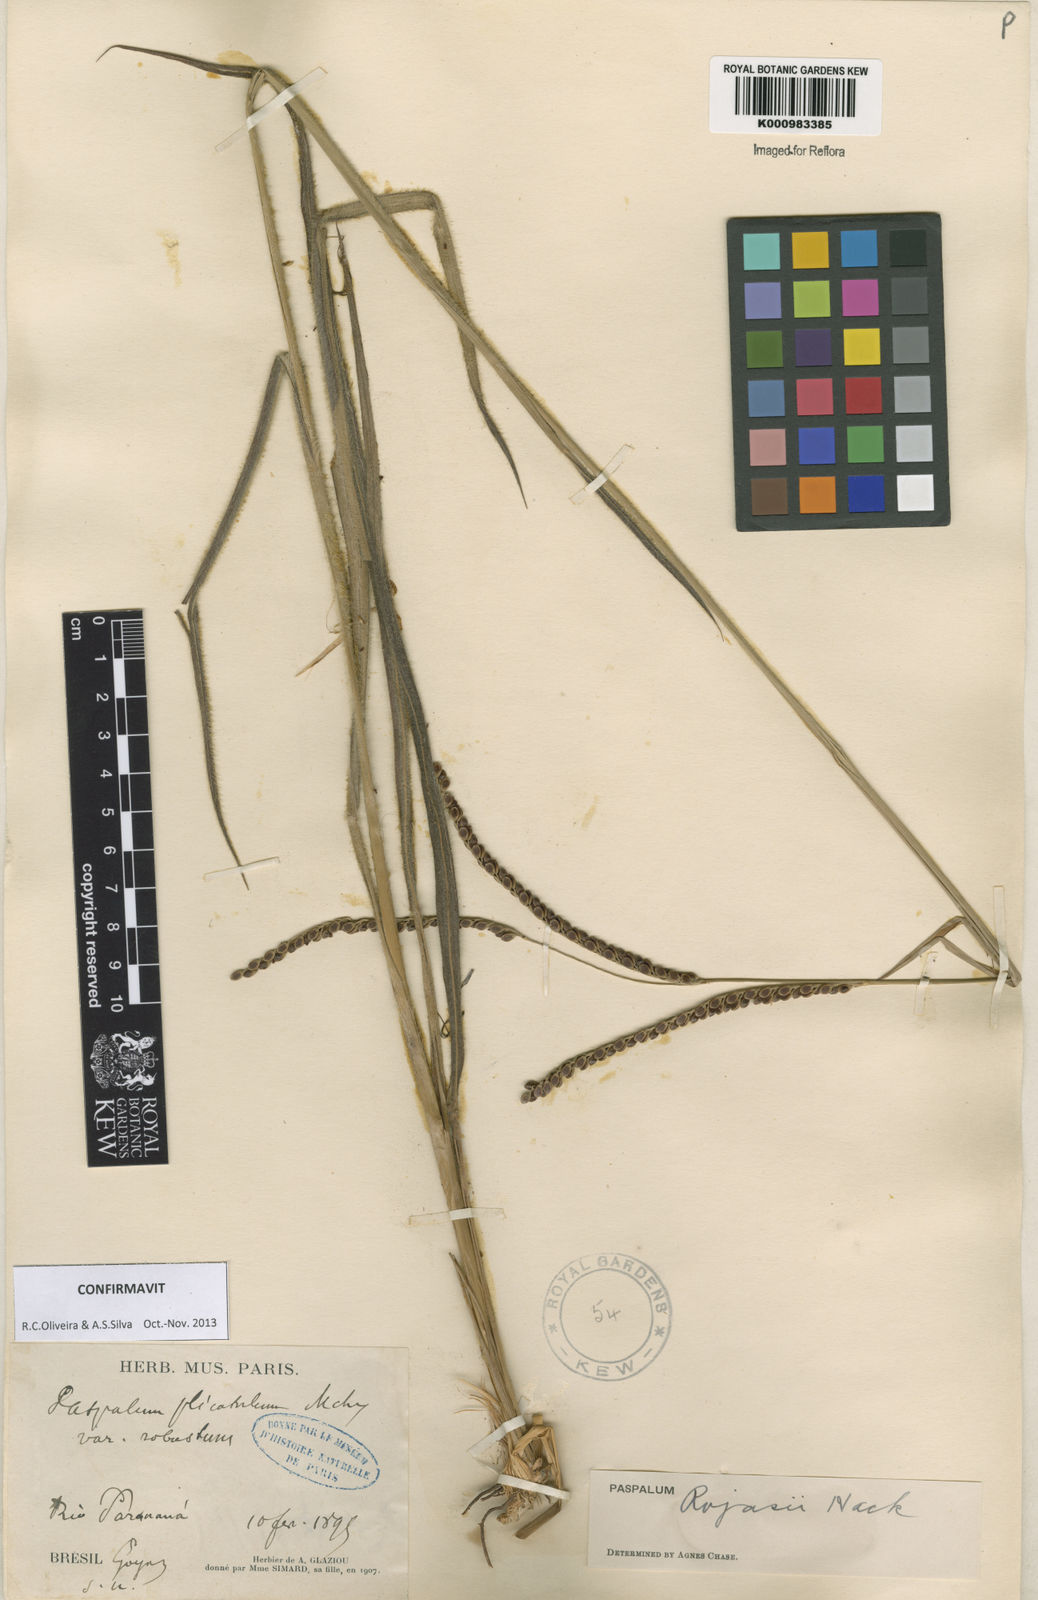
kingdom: Plantae
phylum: Tracheophyta
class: Liliopsida
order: Poales
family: Poaceae
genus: Paspalum
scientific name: Paspalum guenoarum
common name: Wintergreen paspalum
